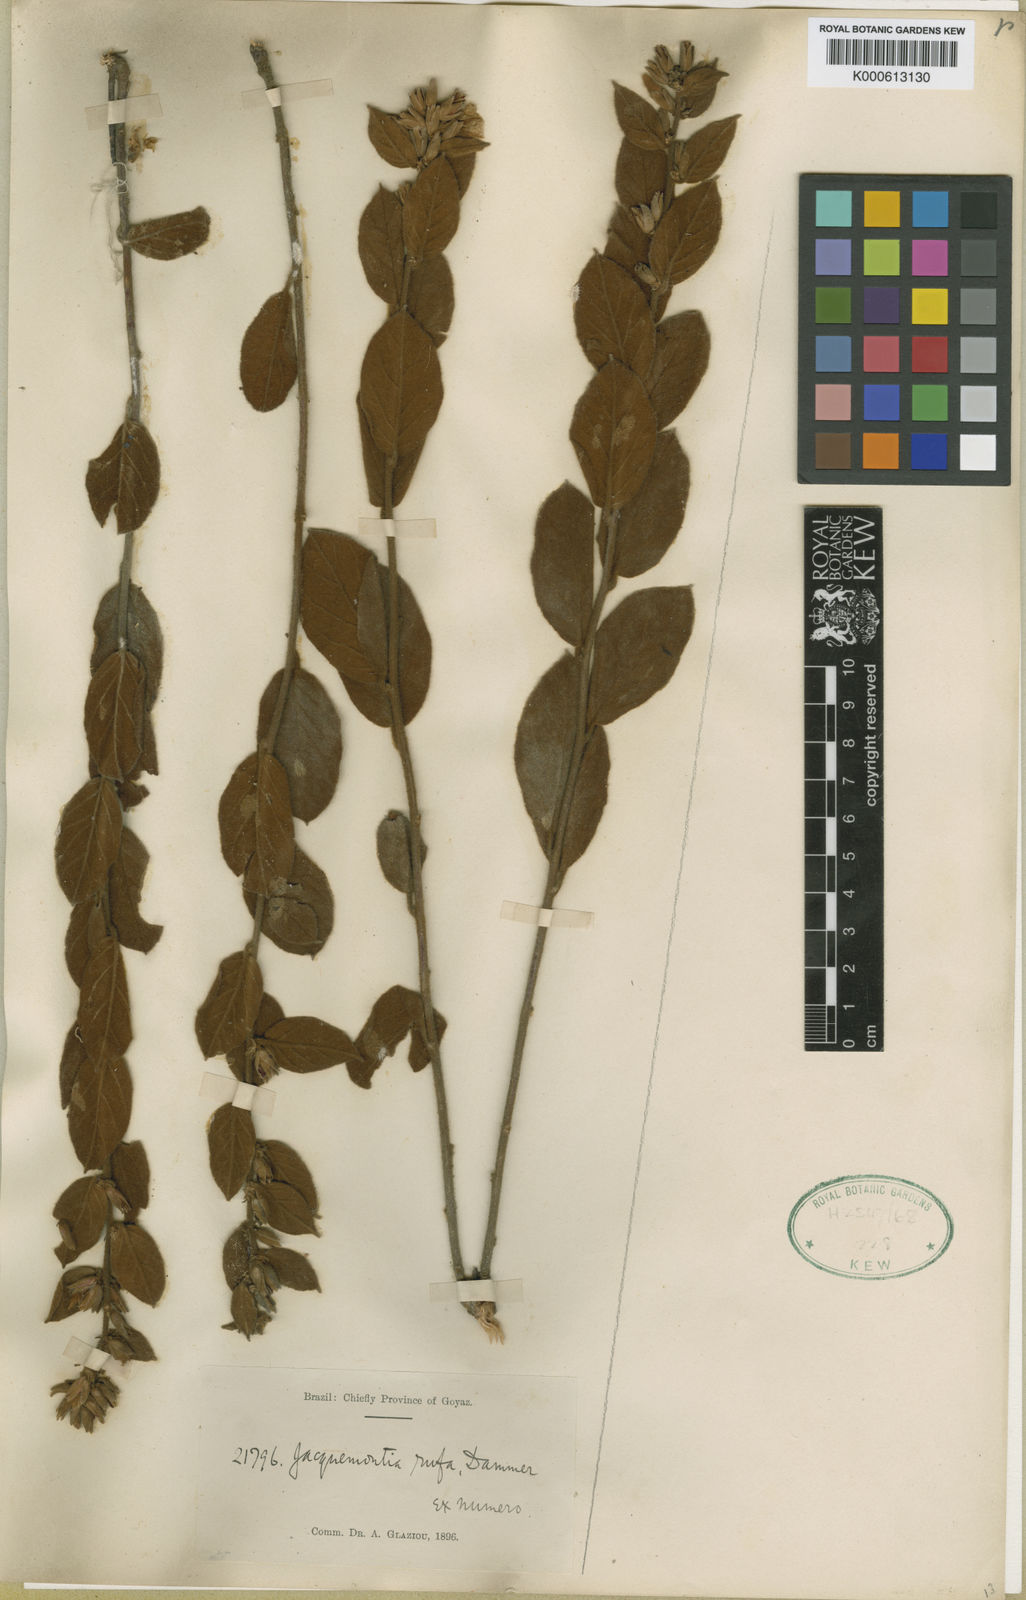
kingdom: Plantae
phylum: Tracheophyta
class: Magnoliopsida
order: Solanales
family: Convolvulaceae
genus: Jacquemontia
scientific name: Jacquemontia fusca
